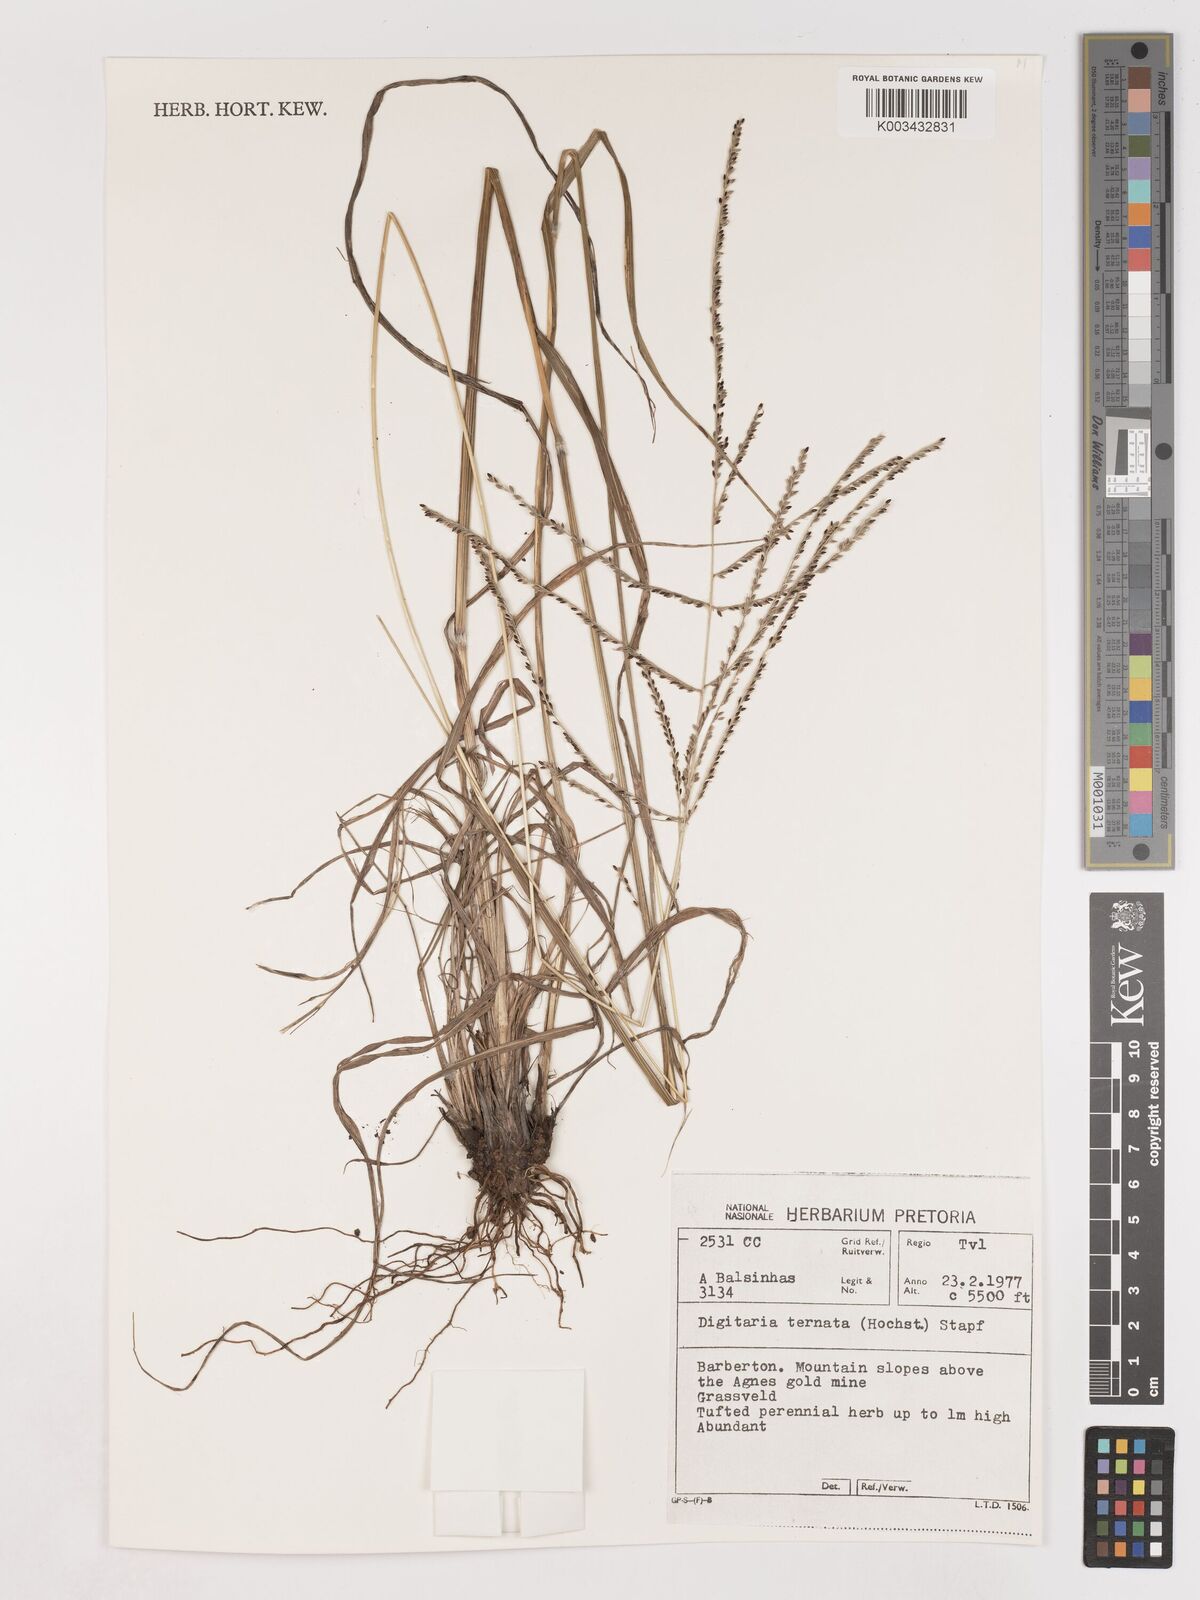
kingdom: Plantae
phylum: Tracheophyta
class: Liliopsida
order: Poales
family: Poaceae
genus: Digitaria
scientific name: Digitaria ternata
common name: Blackseed crabgrass
